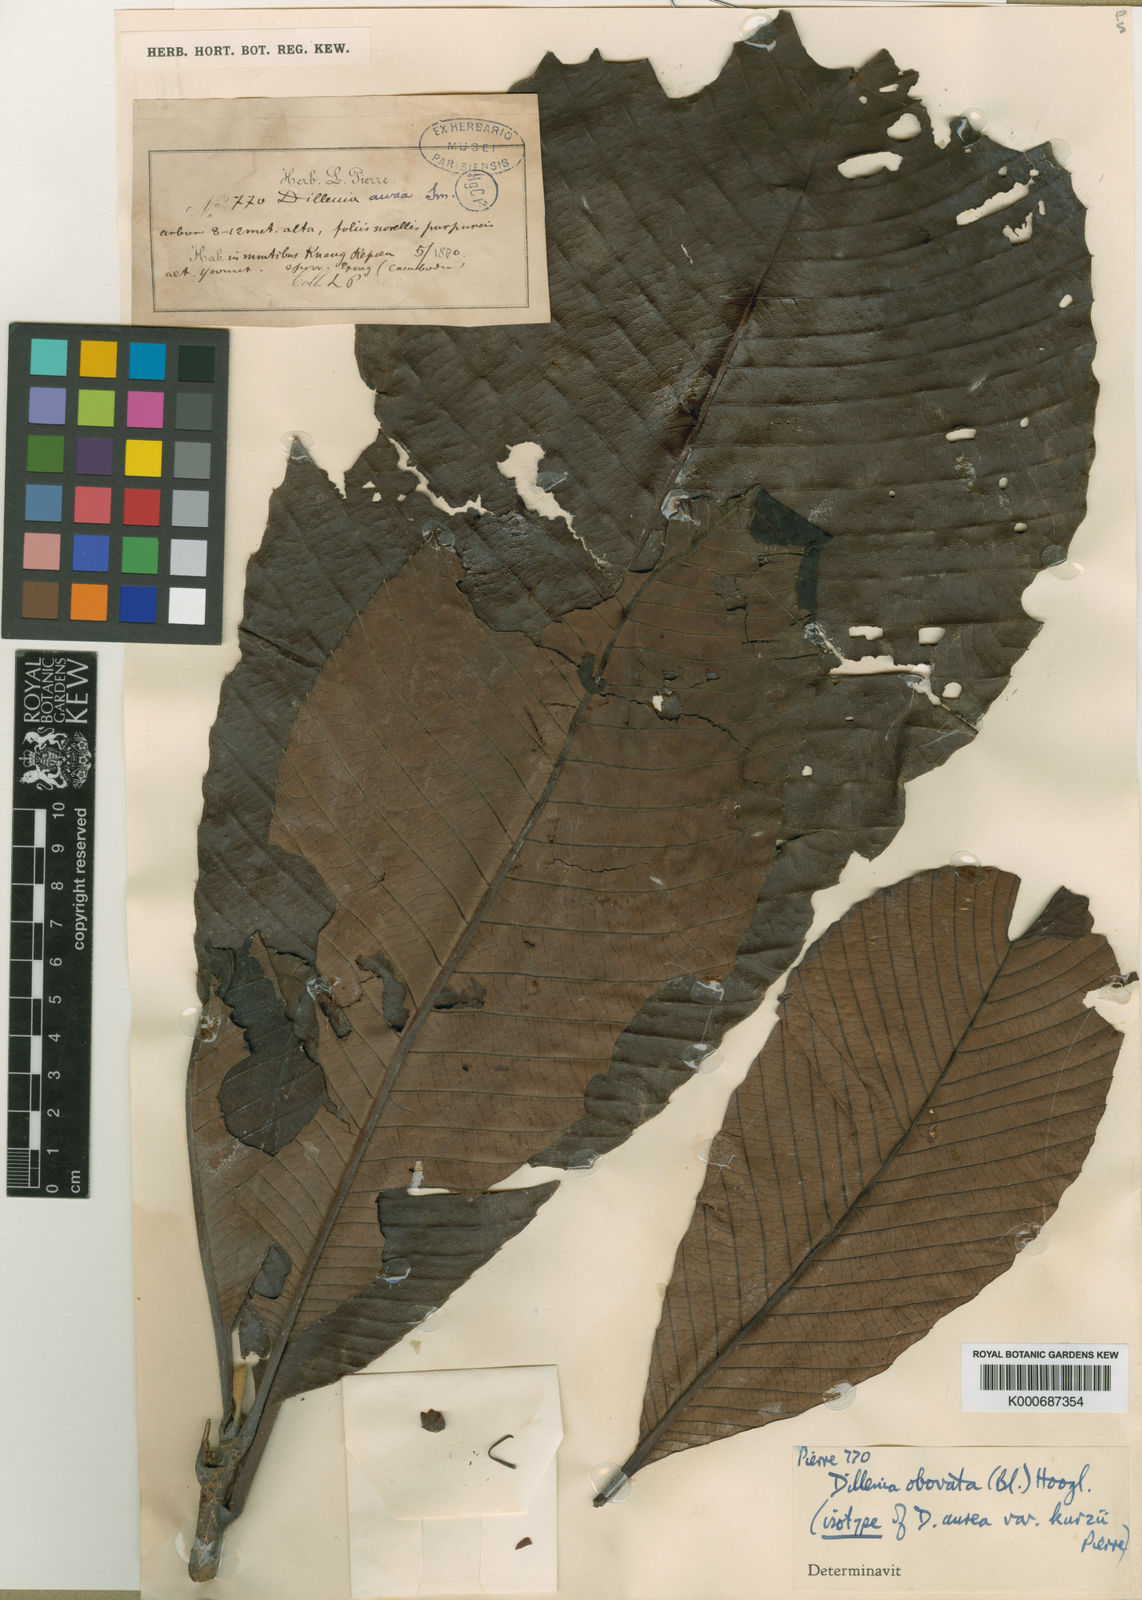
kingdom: Plantae
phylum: Tracheophyta
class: Magnoliopsida
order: Dilleniales
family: Dilleniaceae
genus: Dillenia
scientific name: Dillenia obovata
